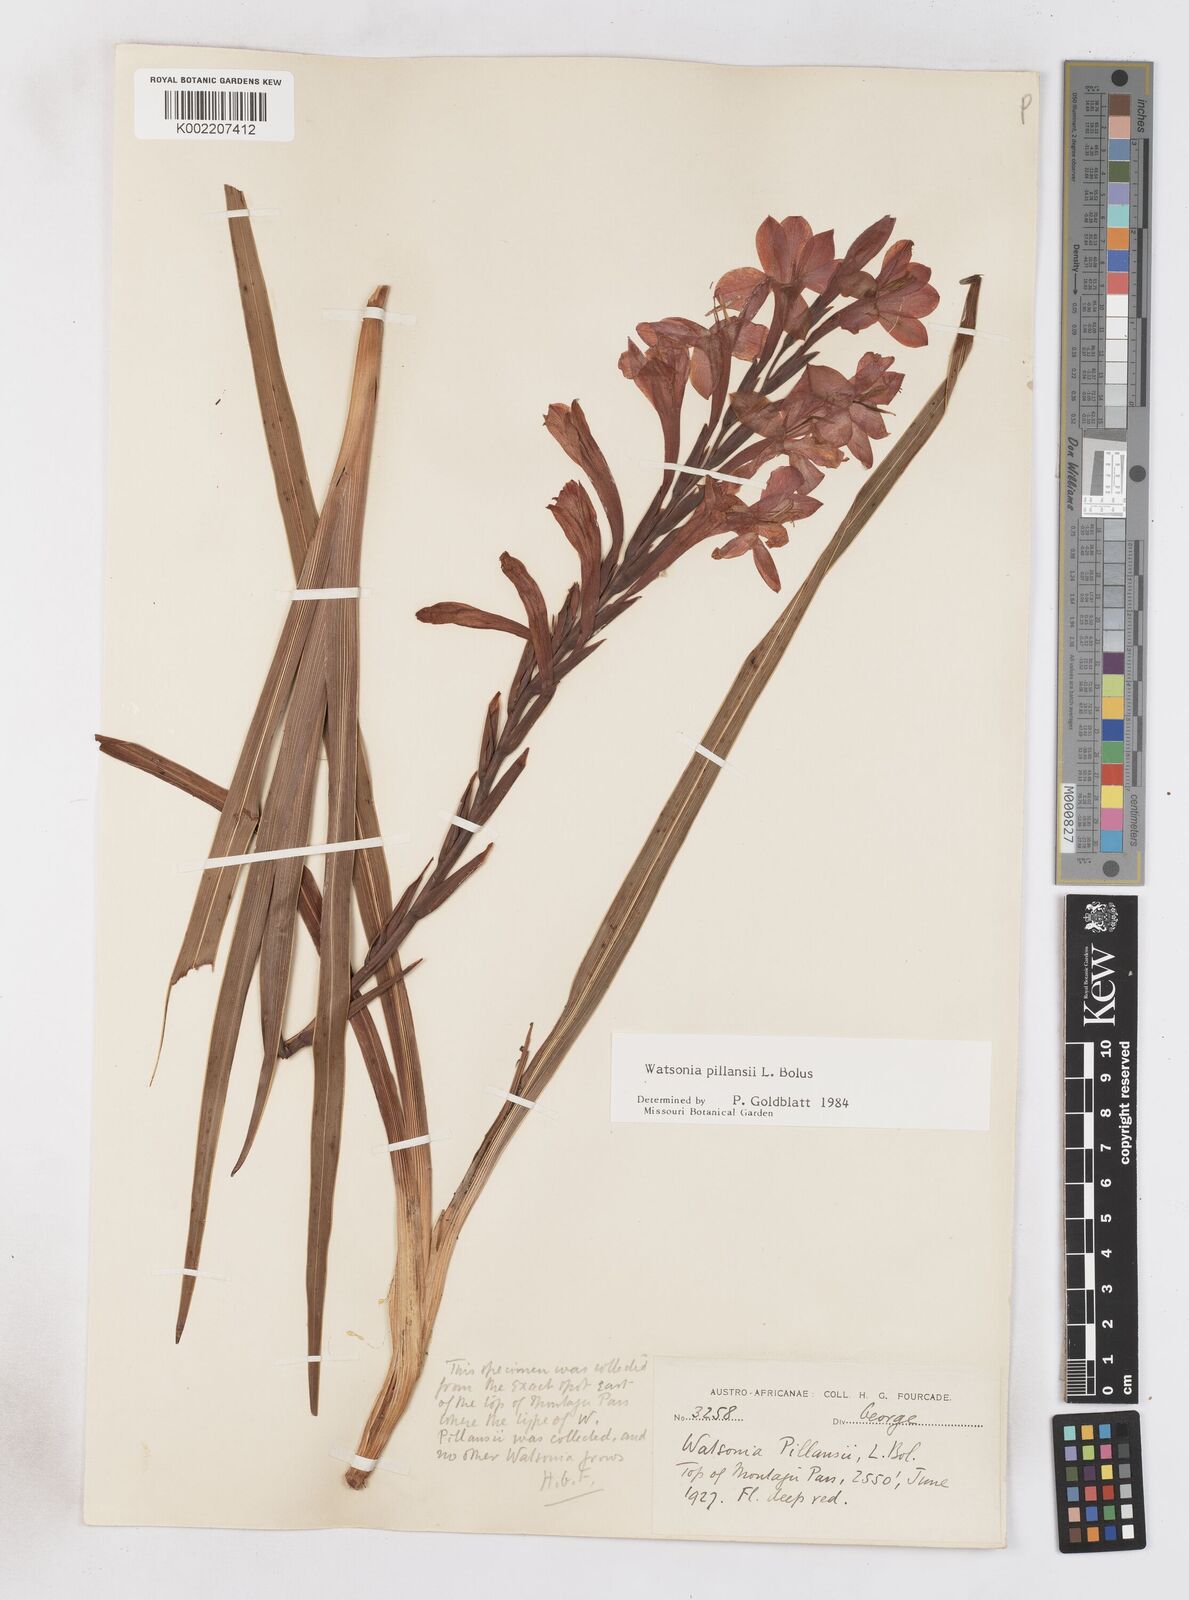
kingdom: Plantae
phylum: Tracheophyta
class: Liliopsida
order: Asparagales
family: Iridaceae
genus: Watsonia
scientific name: Watsonia pillansii
